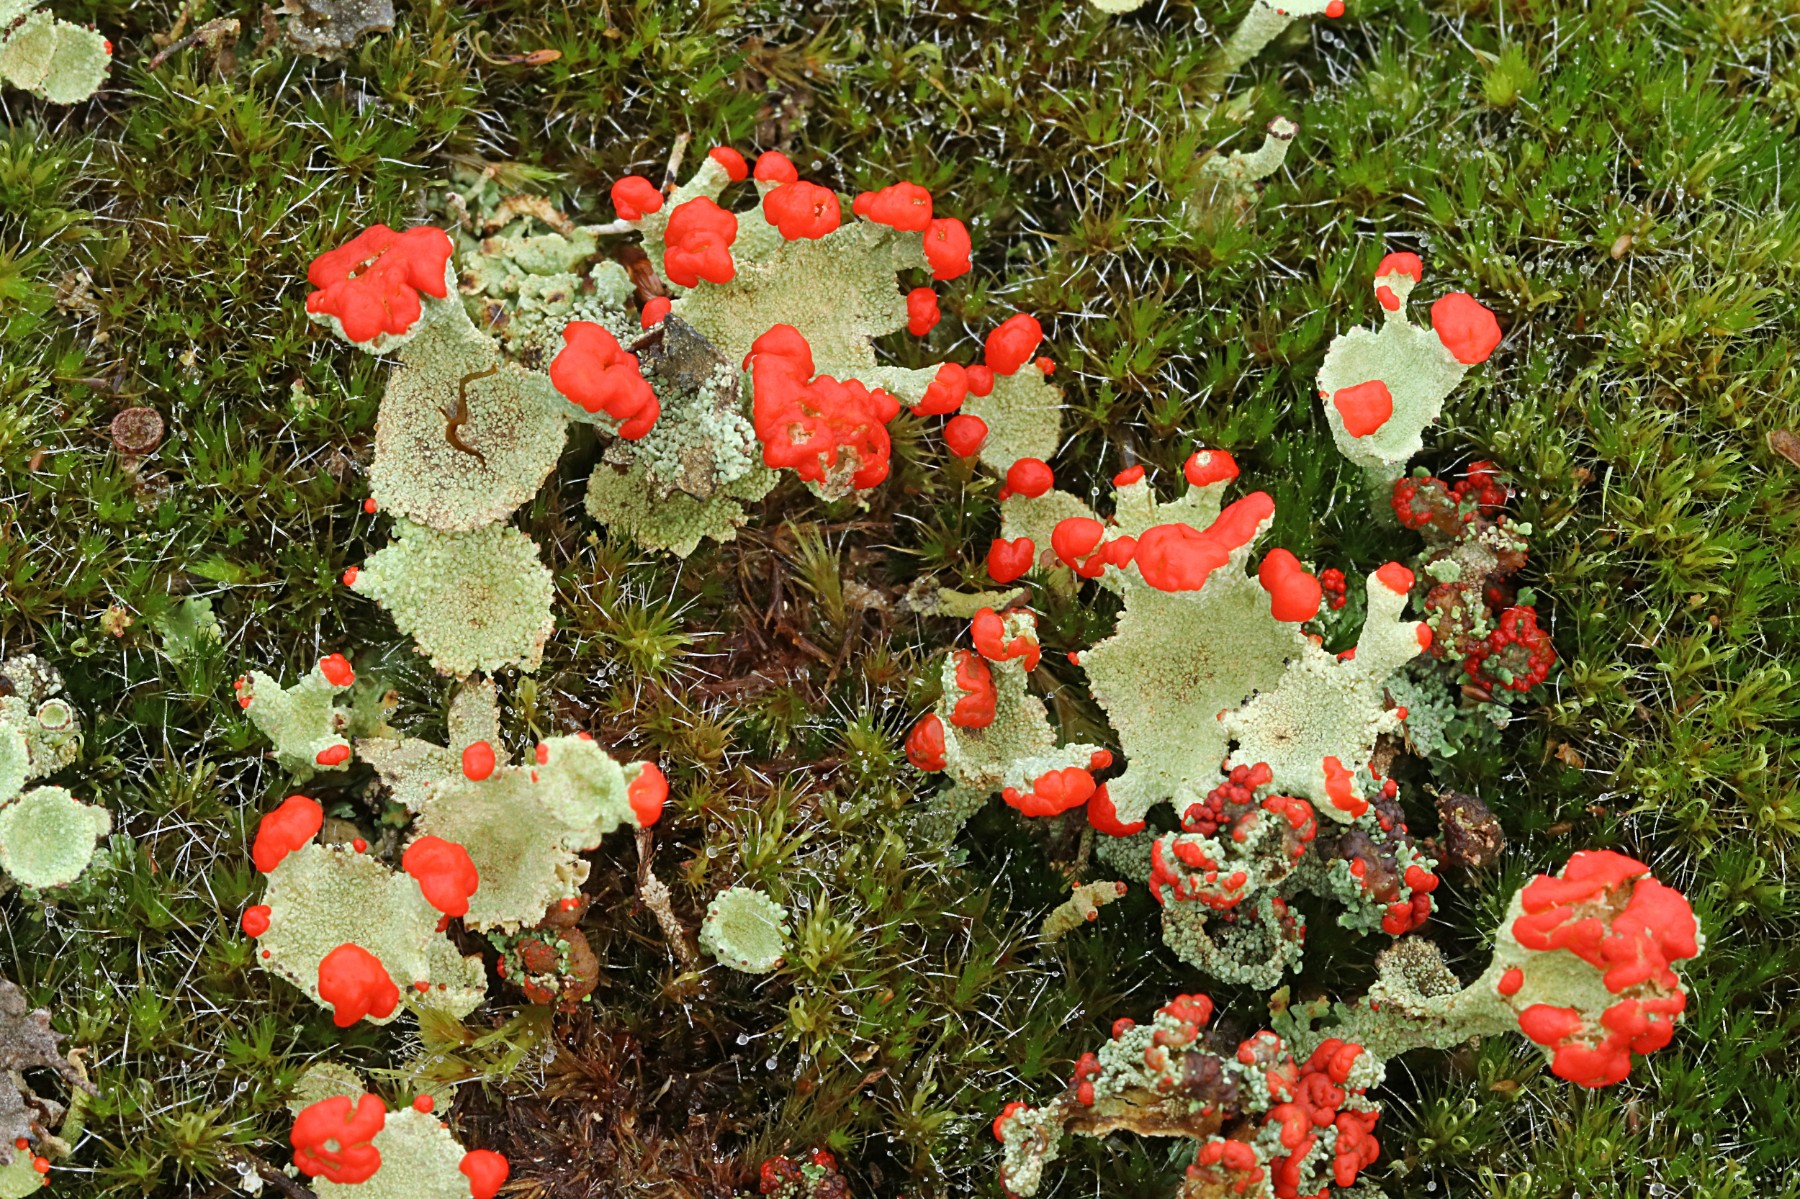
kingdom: Fungi
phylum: Ascomycota
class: Lecanoromycetes
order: Lecanorales
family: Cladoniaceae
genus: Cladonia
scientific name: Cladonia diversa
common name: rød bægerlav
